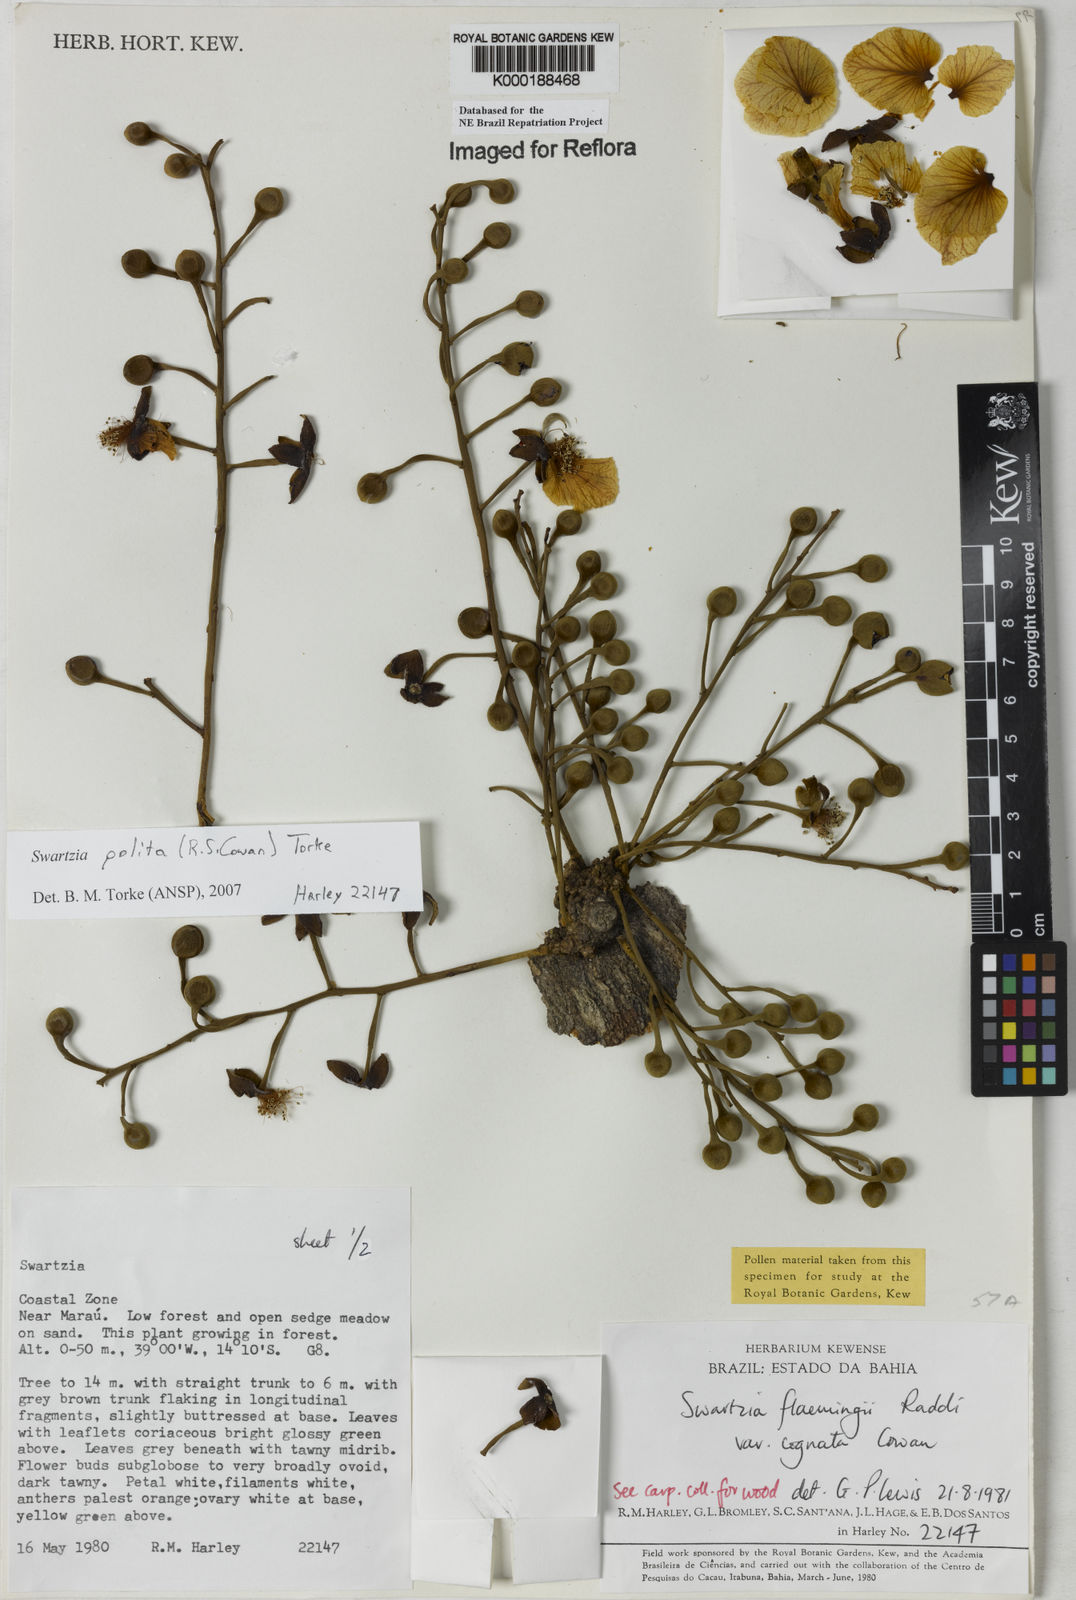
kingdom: Plantae
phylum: Tracheophyta
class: Magnoliopsida
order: Fabales
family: Fabaceae
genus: Swartzia
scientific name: Swartzia polita
